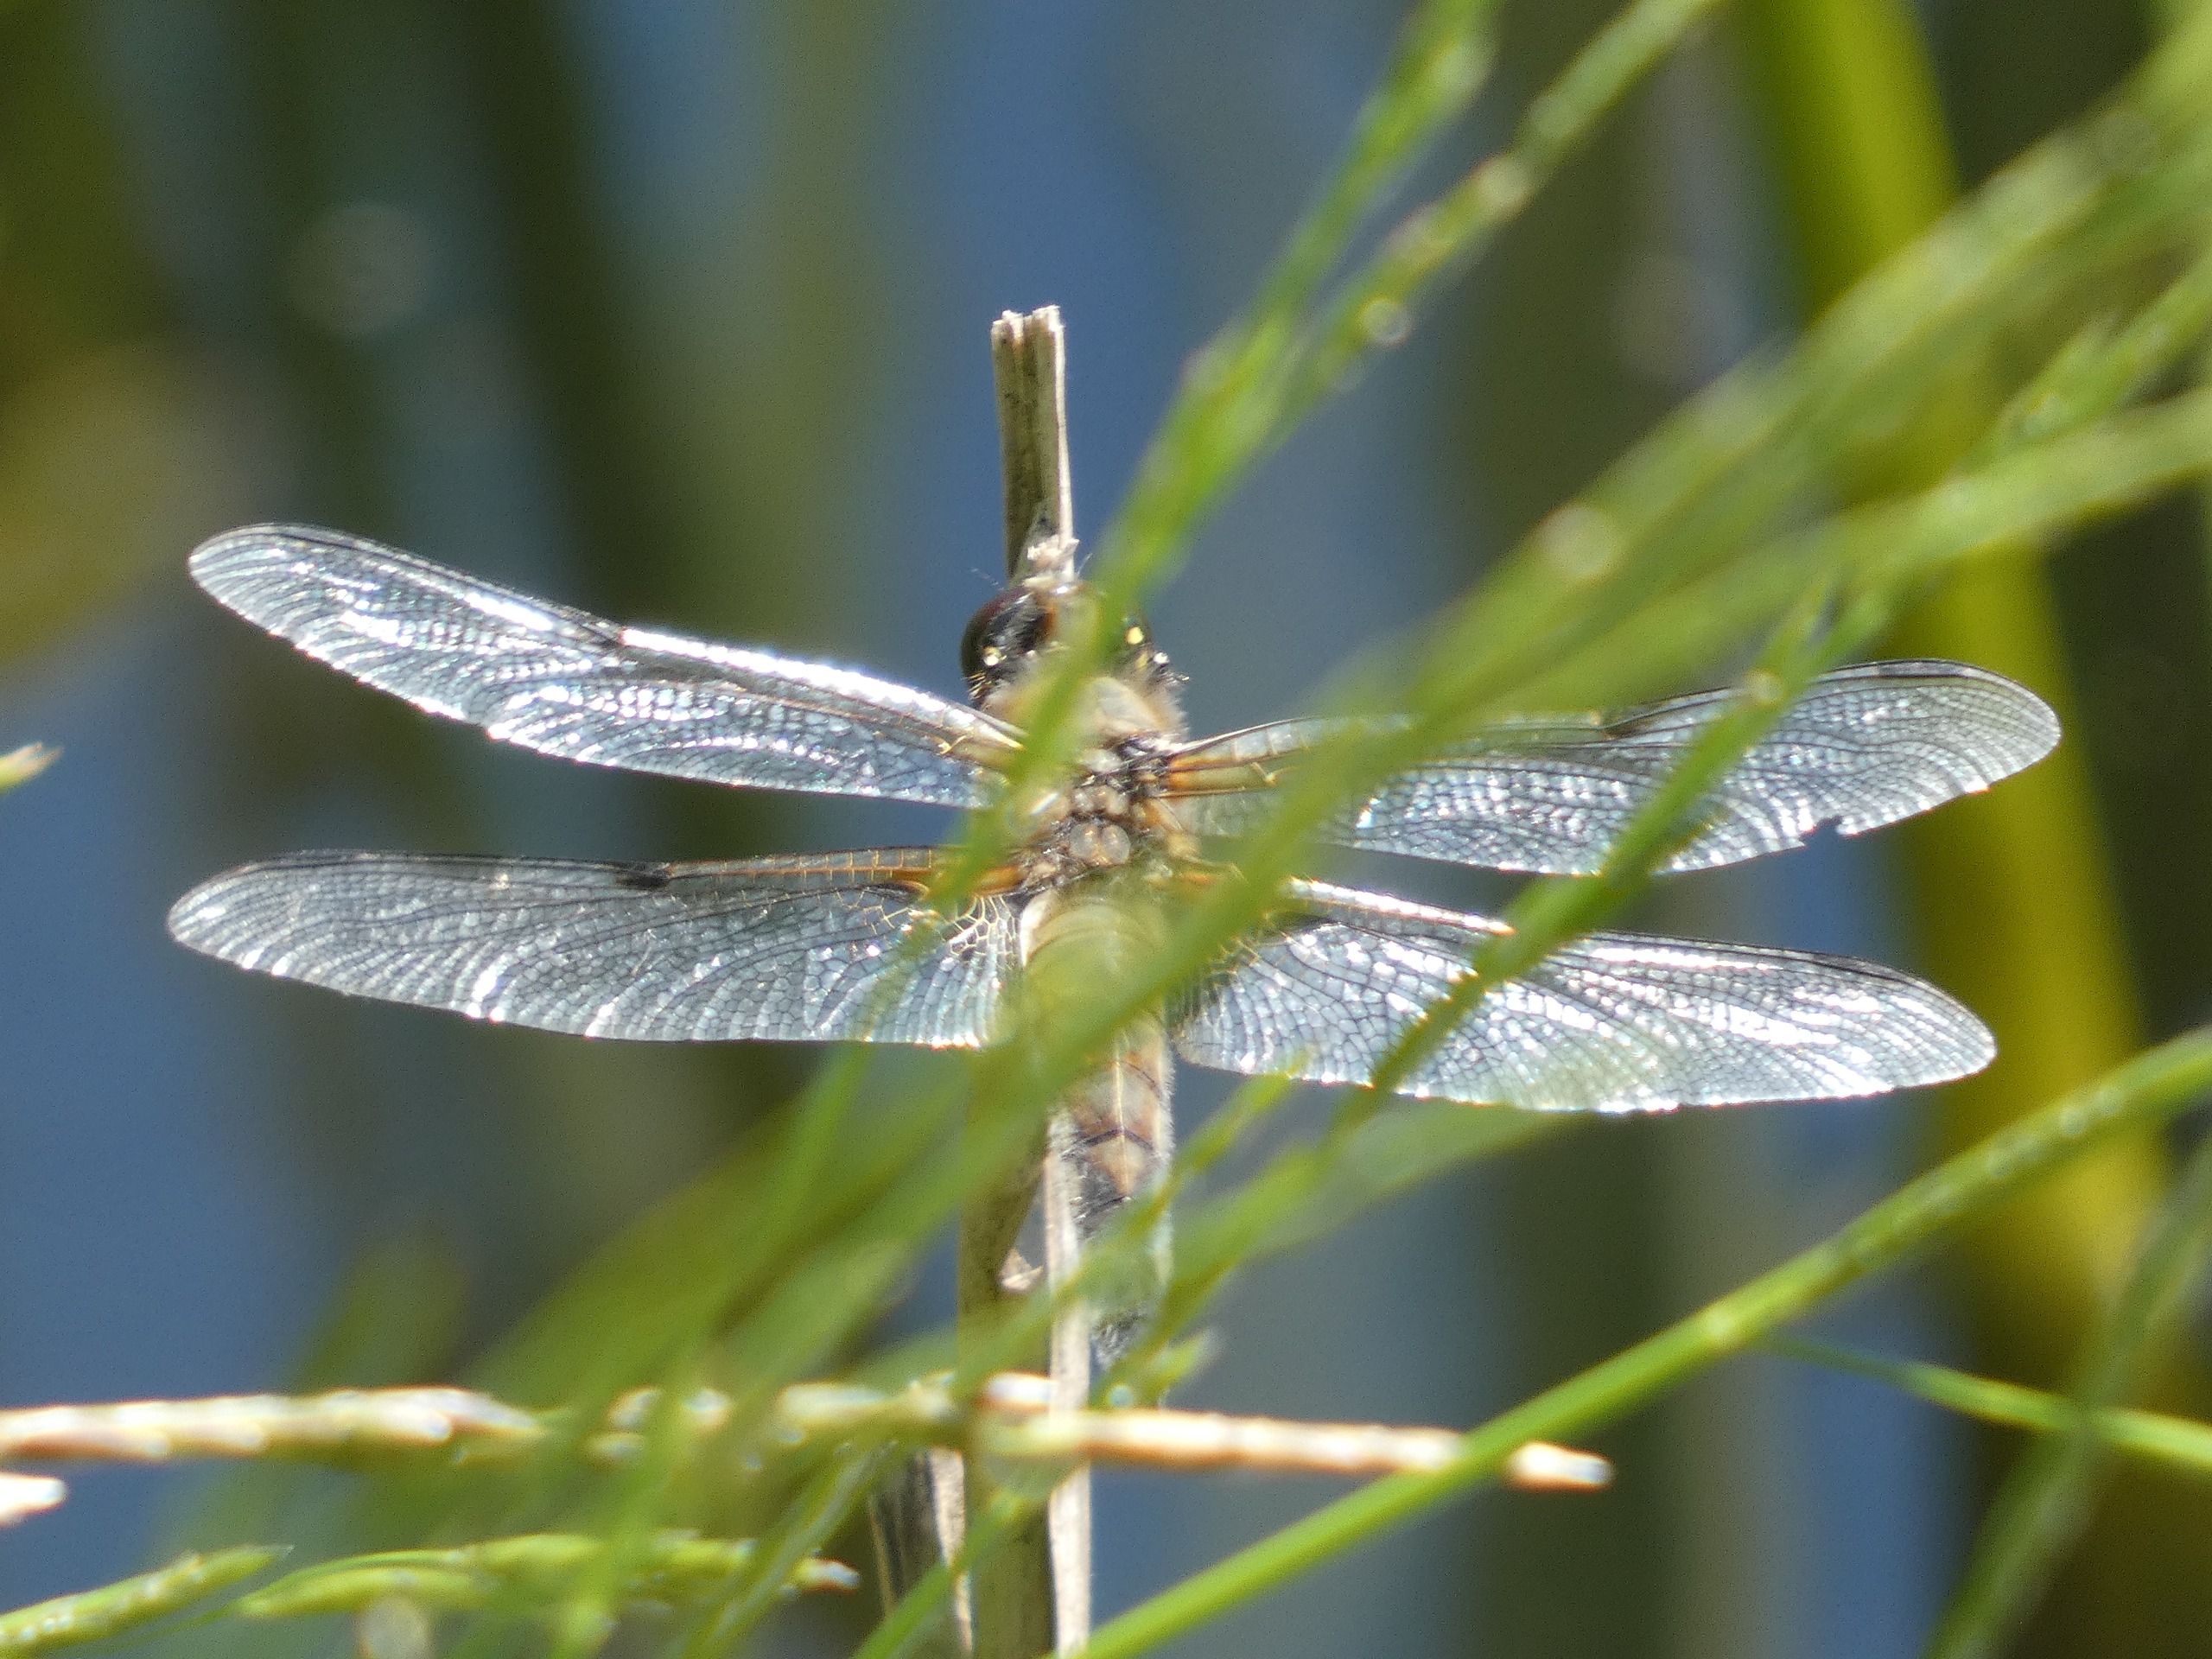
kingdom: Animalia
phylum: Arthropoda
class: Insecta
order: Odonata
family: Libellulidae
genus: Libellula
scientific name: Libellula quadrimaculata
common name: Fireplettet libel
